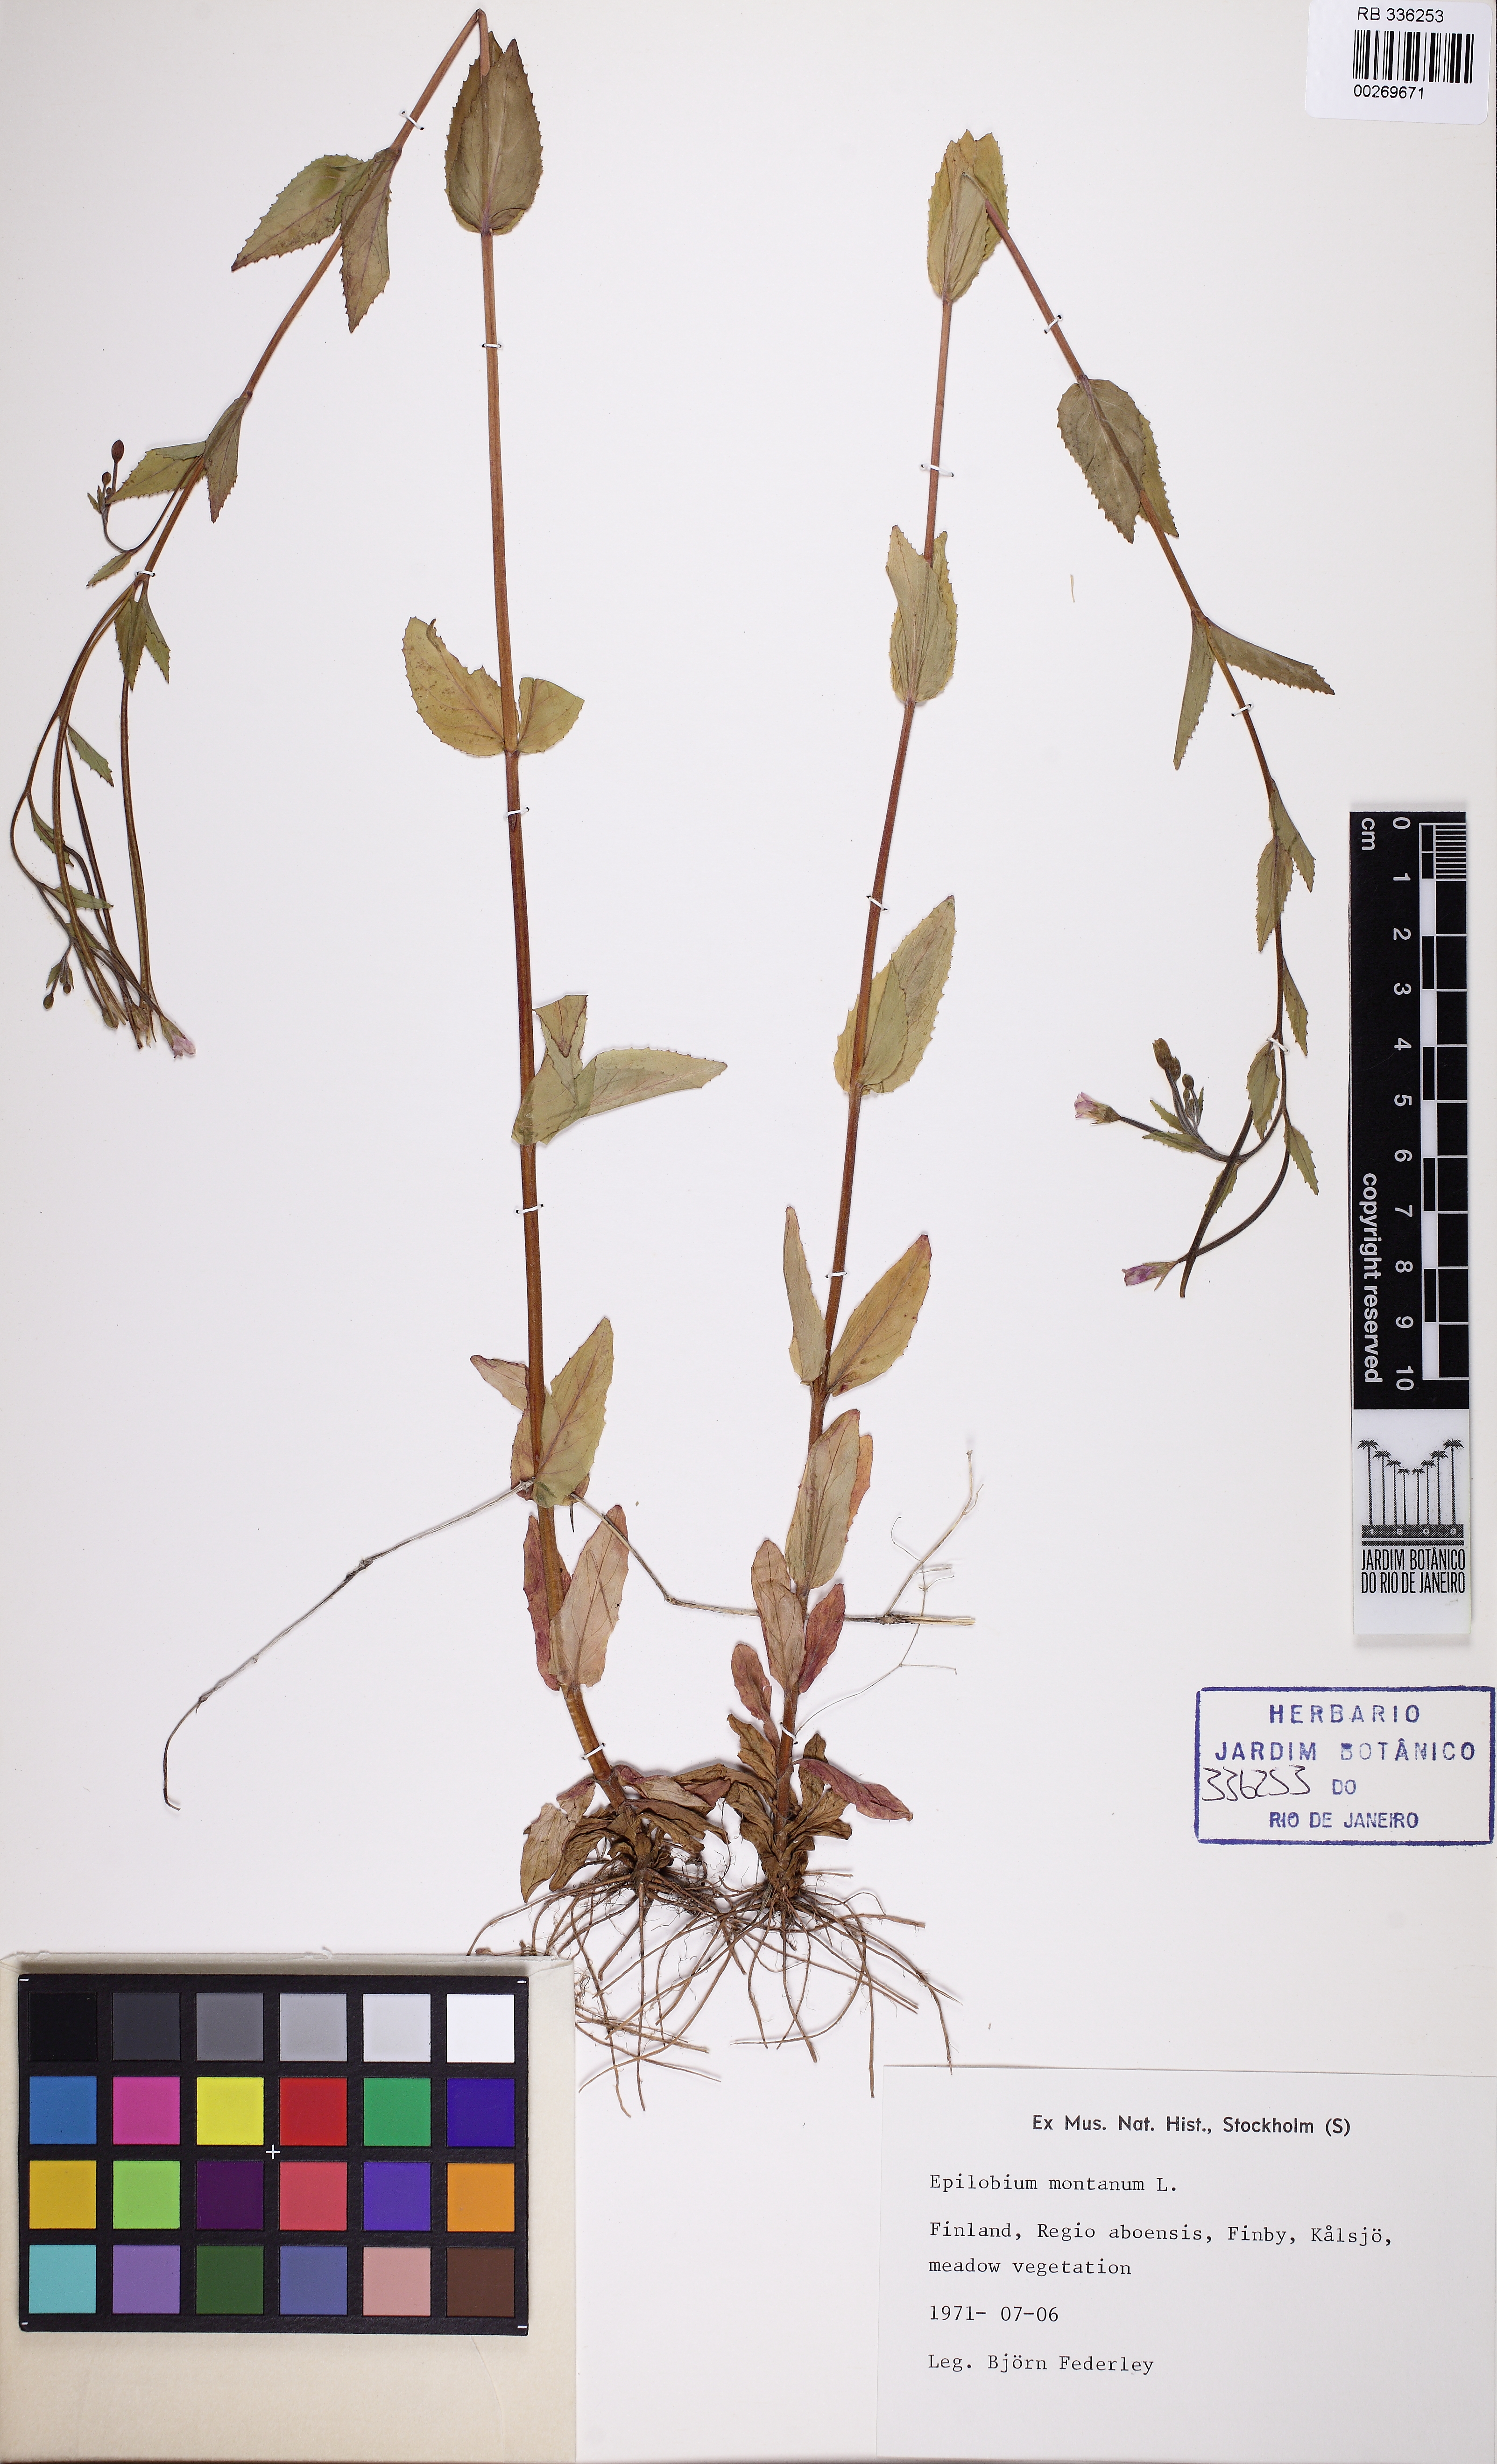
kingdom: Plantae
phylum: Tracheophyta
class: Magnoliopsida
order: Myrtales
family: Onagraceae
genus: Epilobium
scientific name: Epilobium montanum
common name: Broad-leaved willowherb
